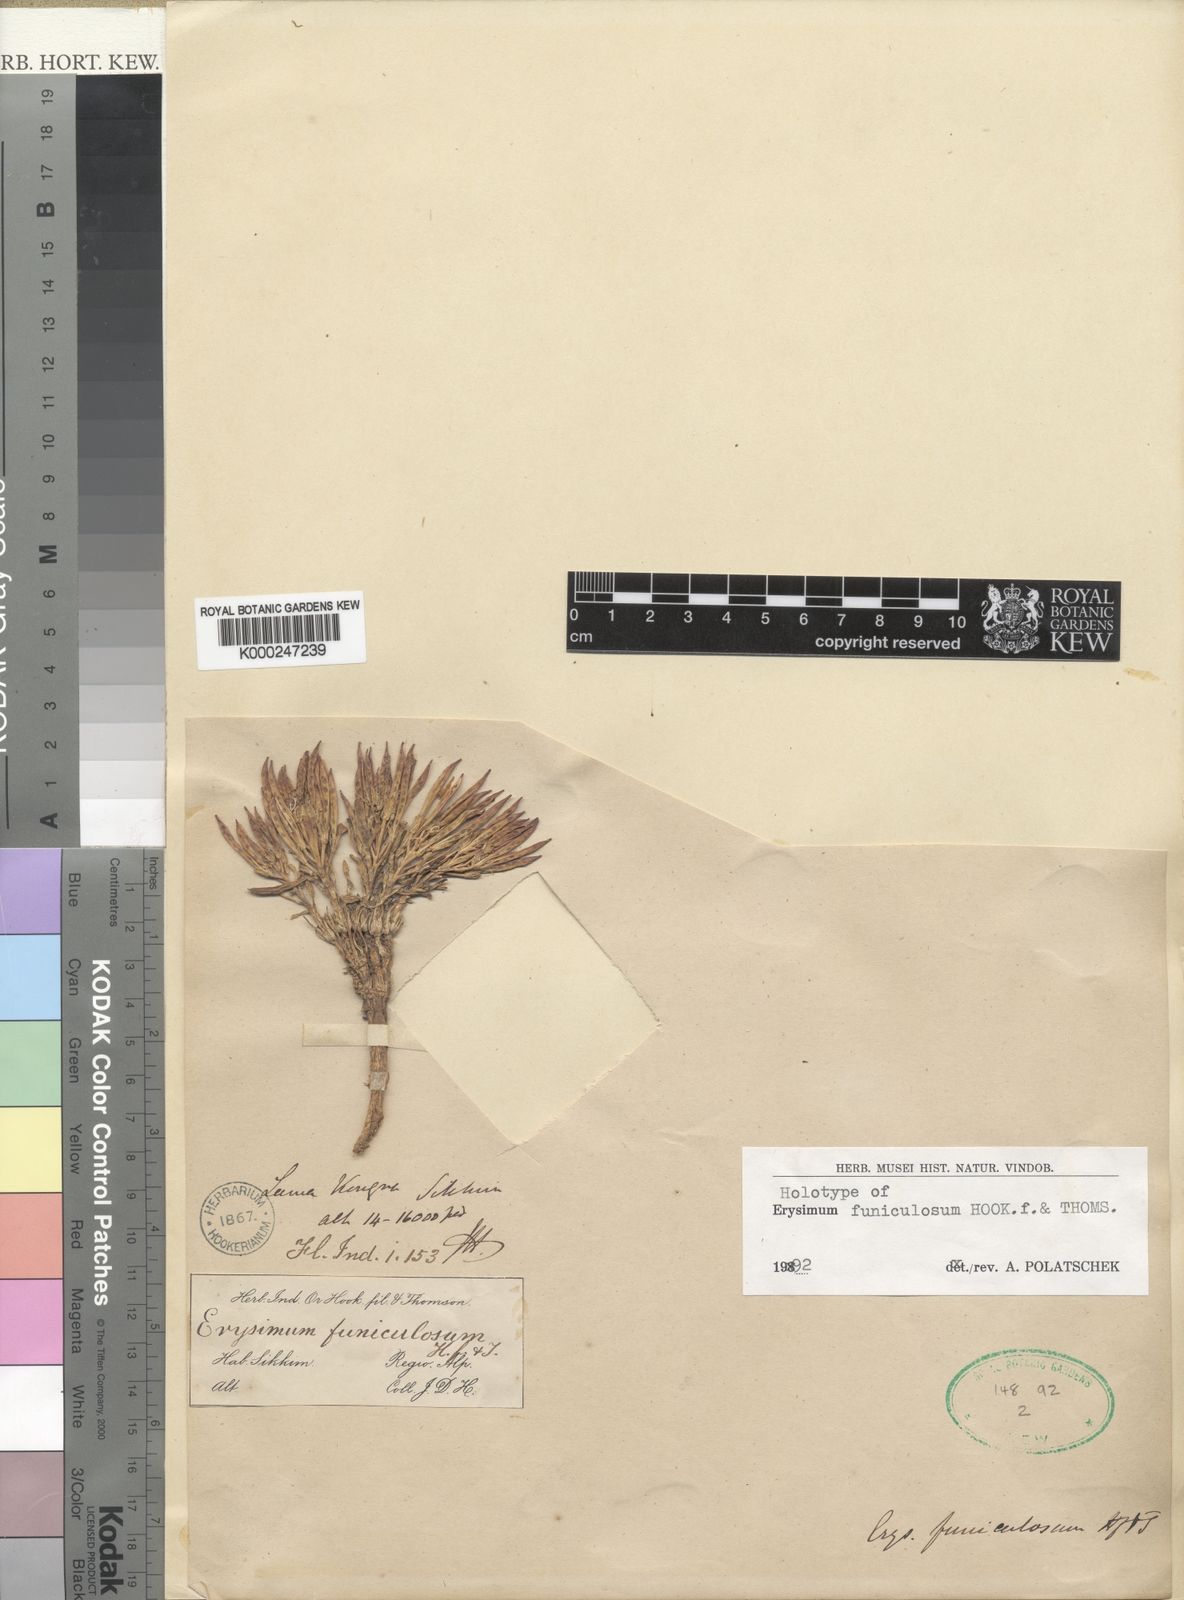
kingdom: Plantae
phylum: Tracheophyta
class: Magnoliopsida
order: Brassicales
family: Brassicaceae
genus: Erysimum
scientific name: Erysimum funiculosum
